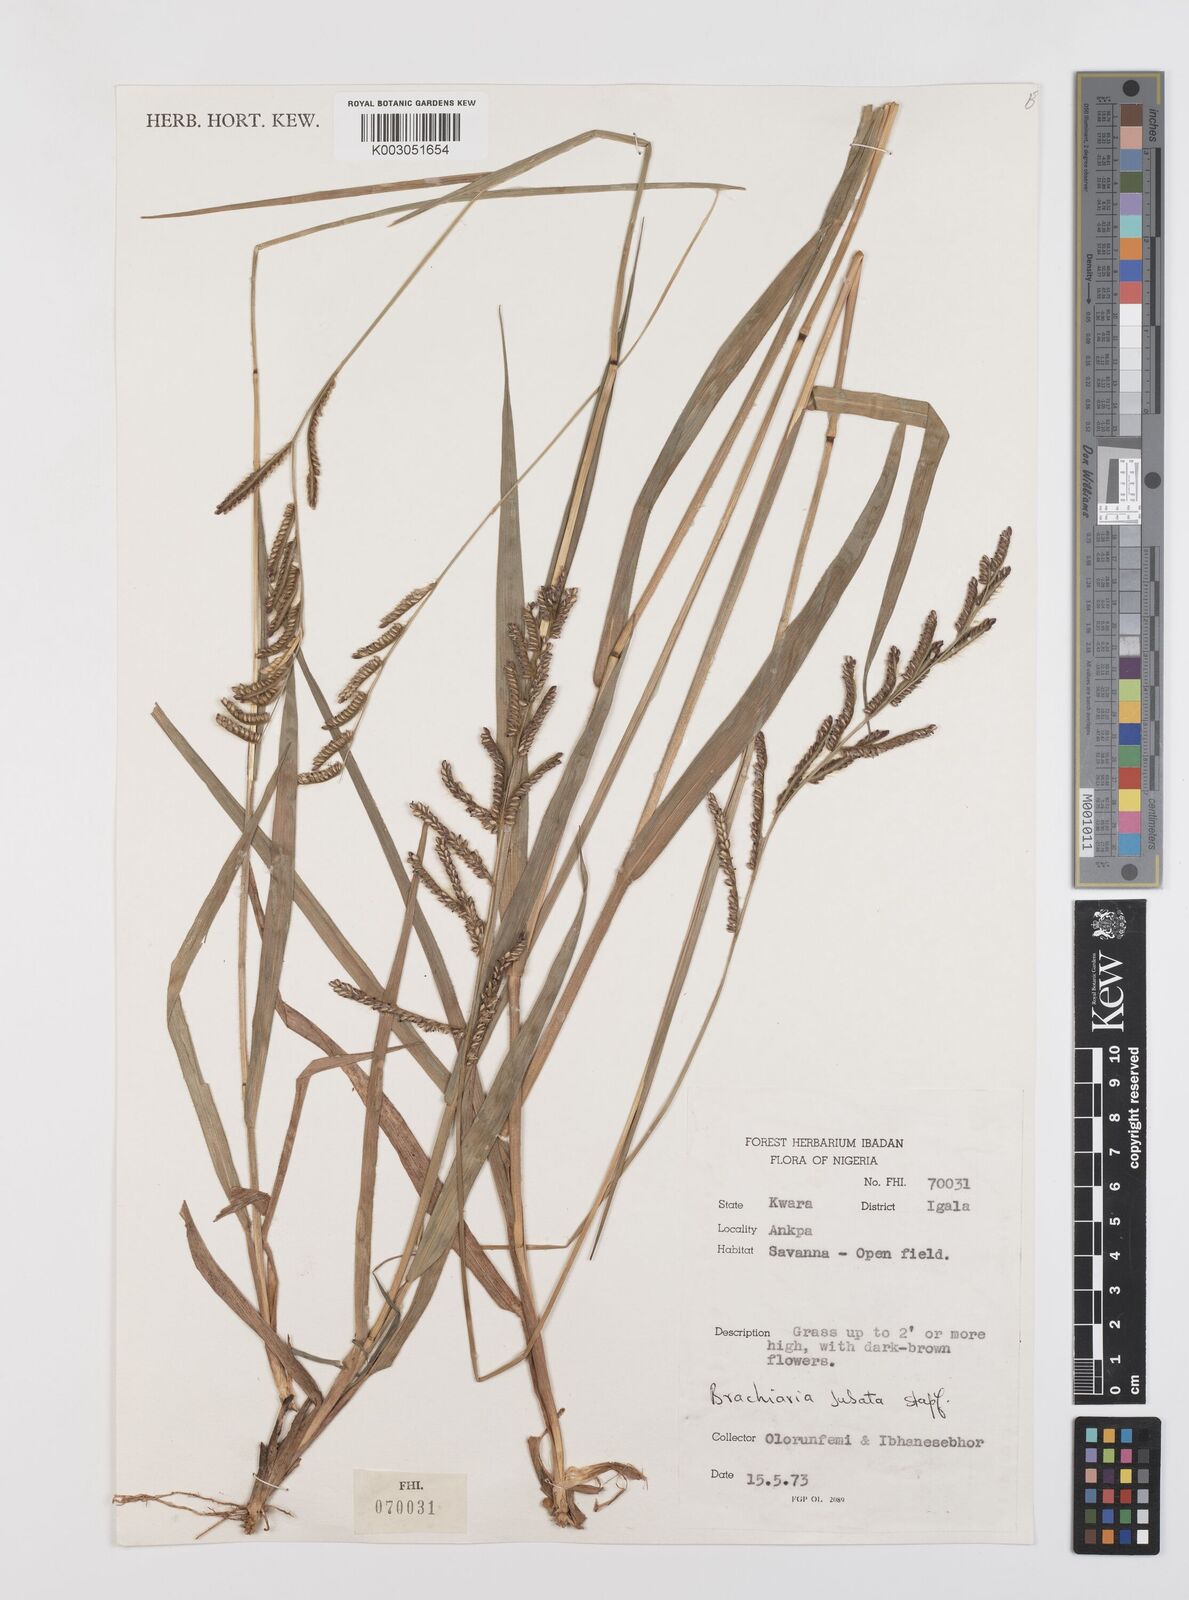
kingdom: Plantae
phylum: Tracheophyta
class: Liliopsida
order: Poales
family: Poaceae
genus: Urochloa
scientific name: Urochloa jubata
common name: Buffalograss
